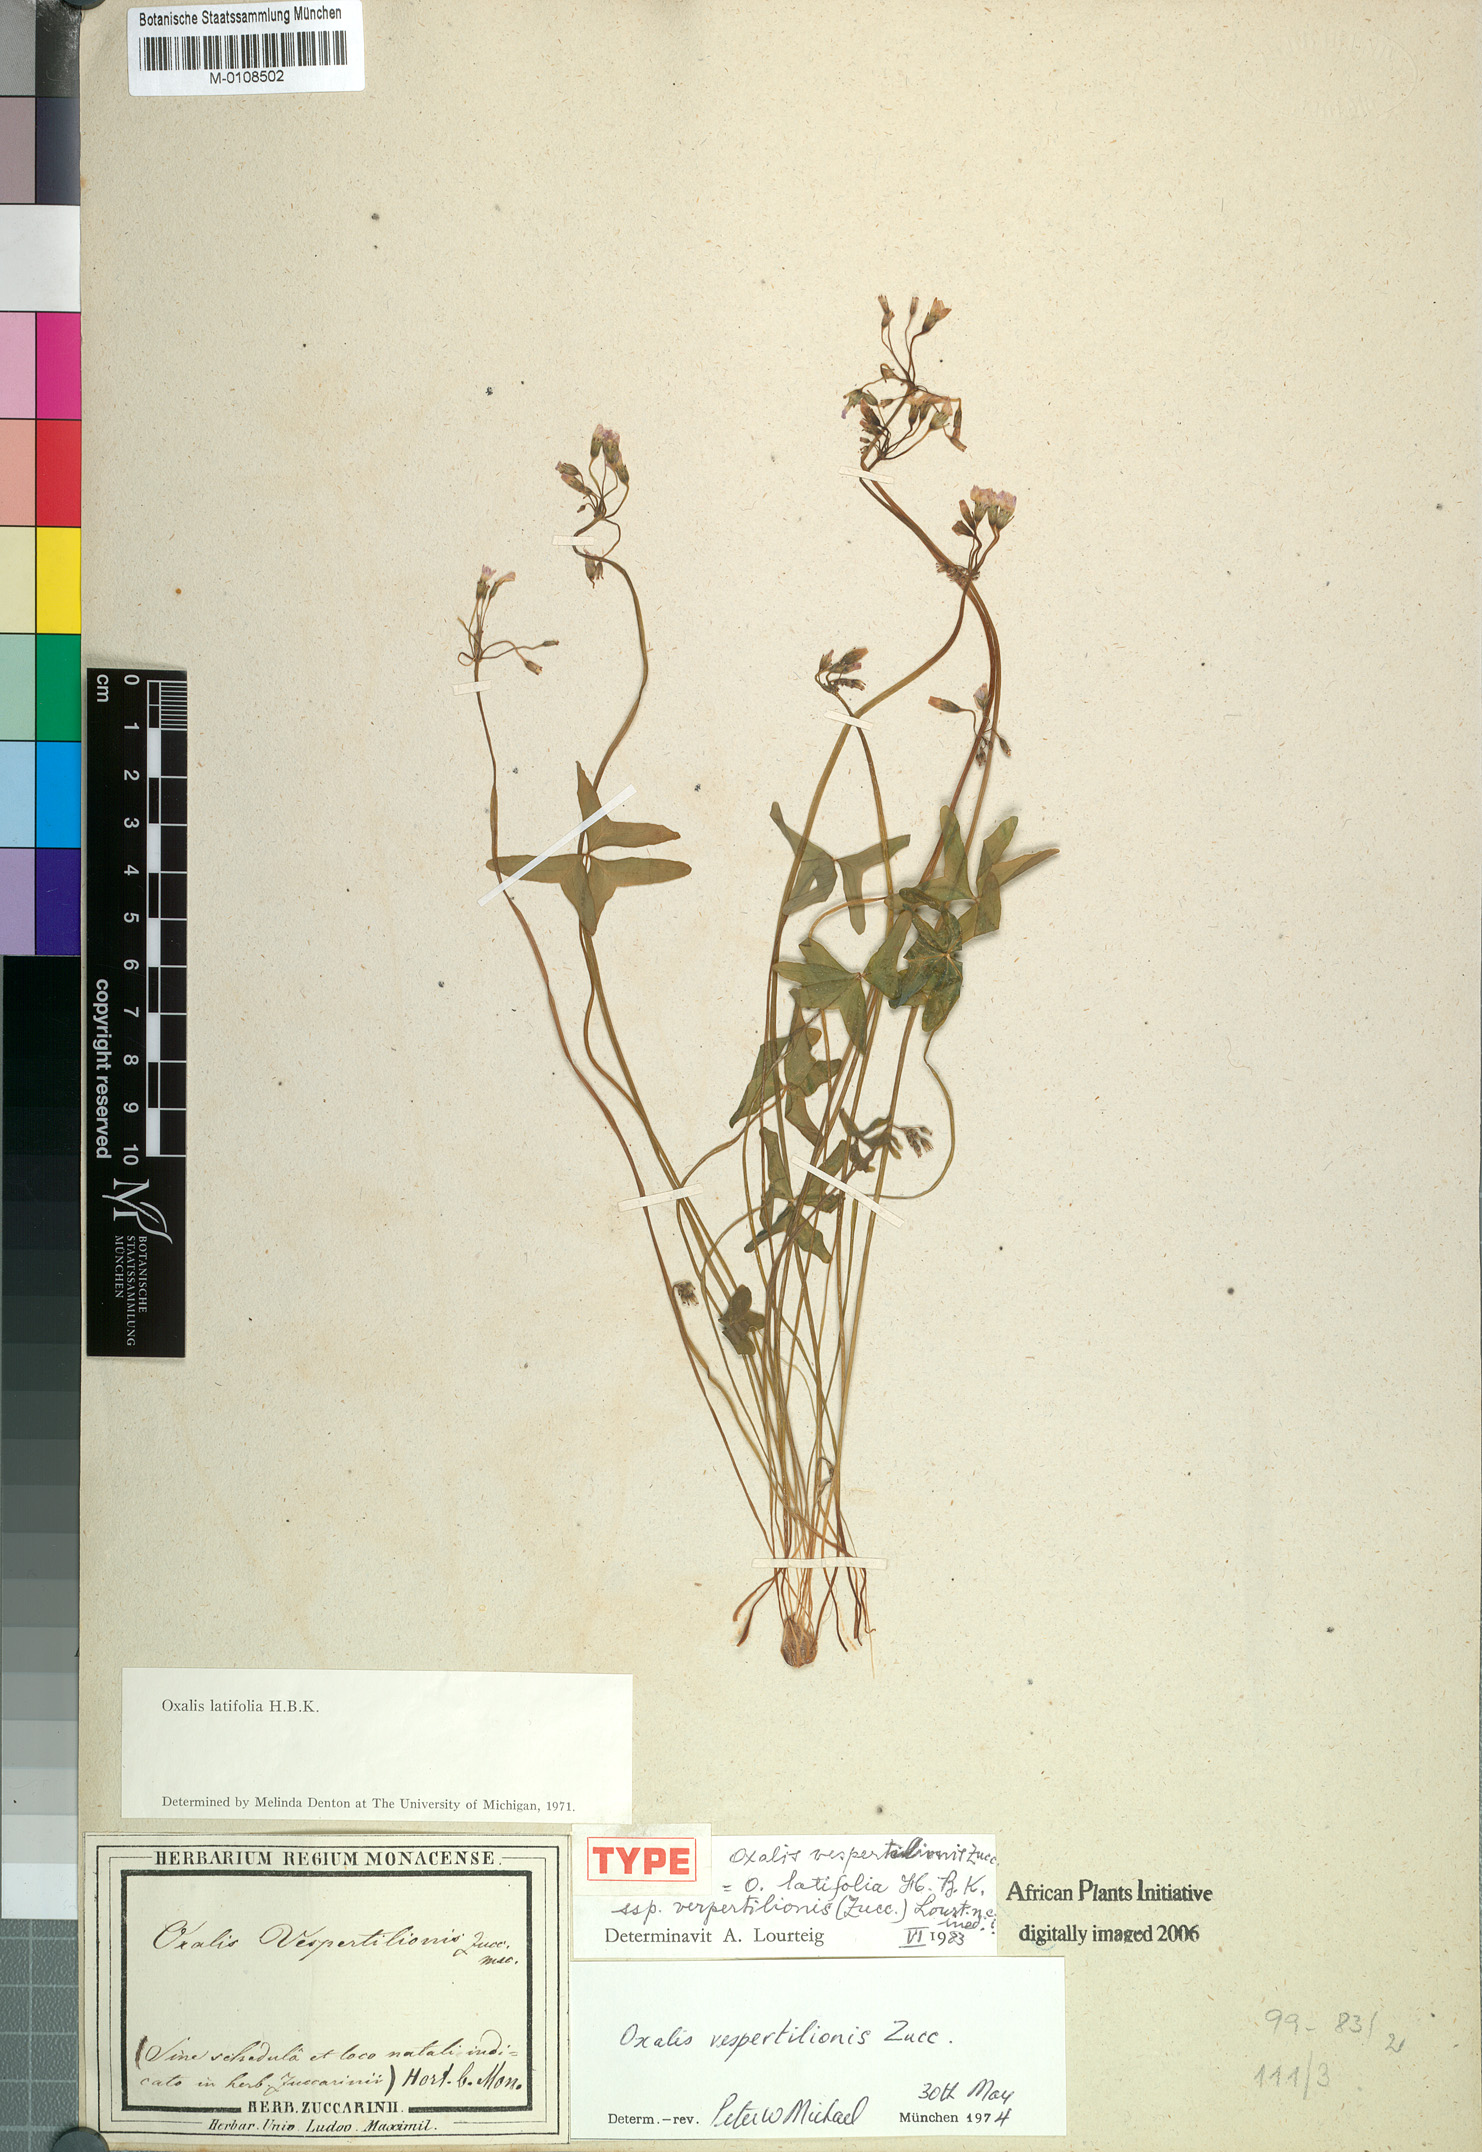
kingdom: Plantae
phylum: Tracheophyta
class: Magnoliopsida
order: Oxalidales
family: Oxalidaceae
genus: Oxalis
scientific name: Oxalis latifolia
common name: Garden pink-sorrel
